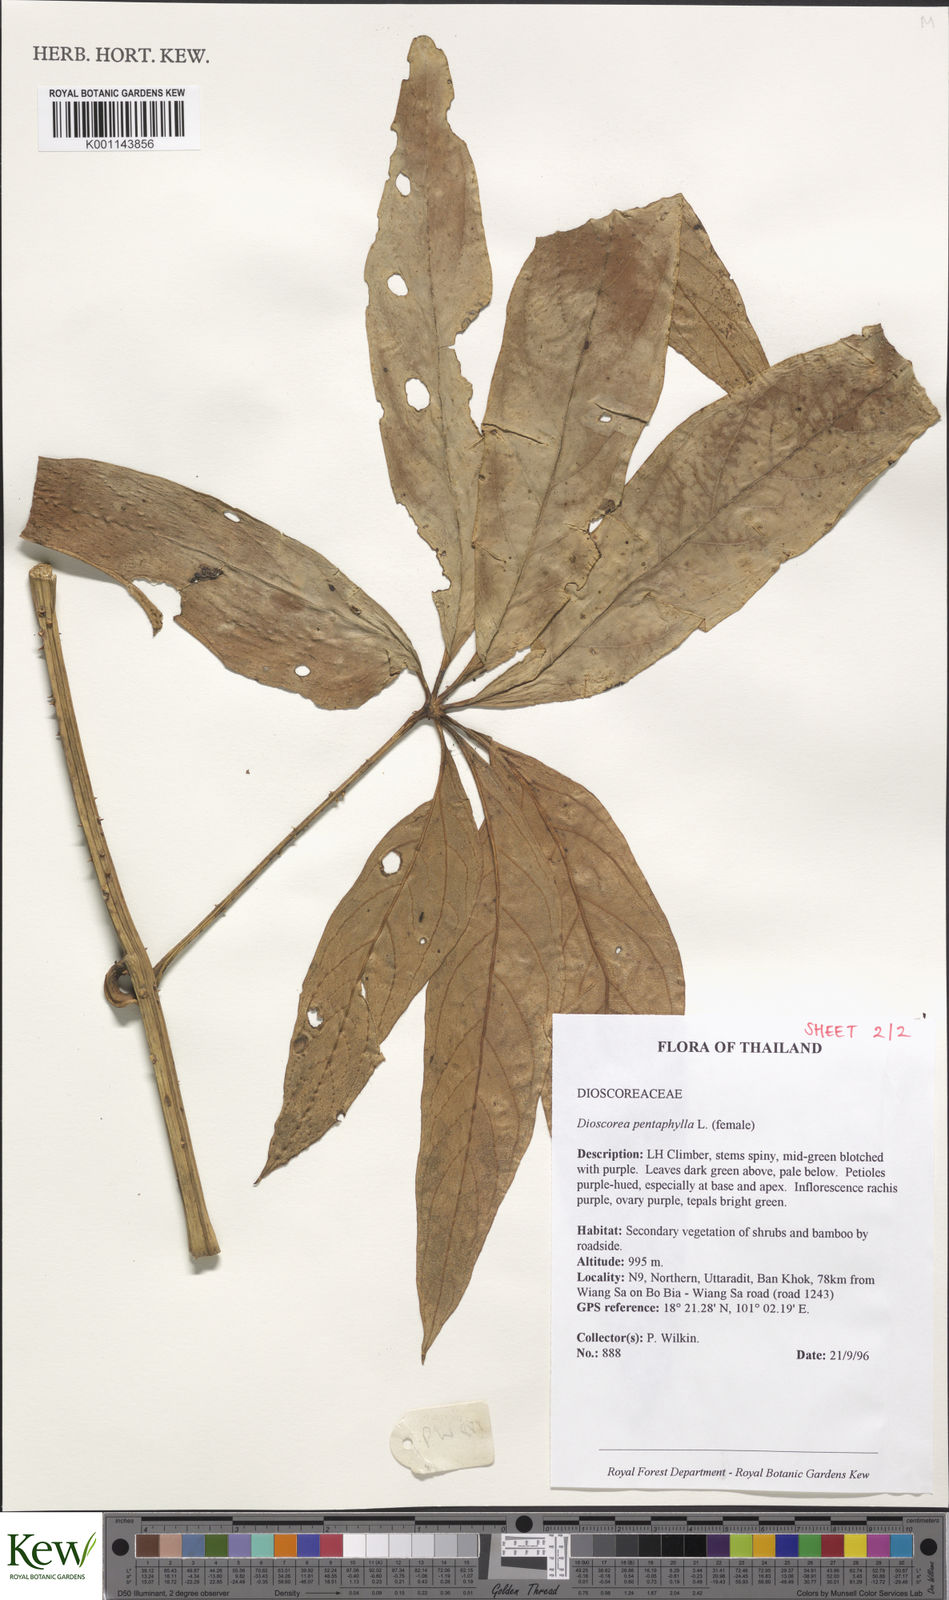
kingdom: Plantae
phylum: Tracheophyta
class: Liliopsida
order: Dioscoreales
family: Dioscoreaceae
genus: Dioscorea
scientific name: Dioscorea pentaphylla
